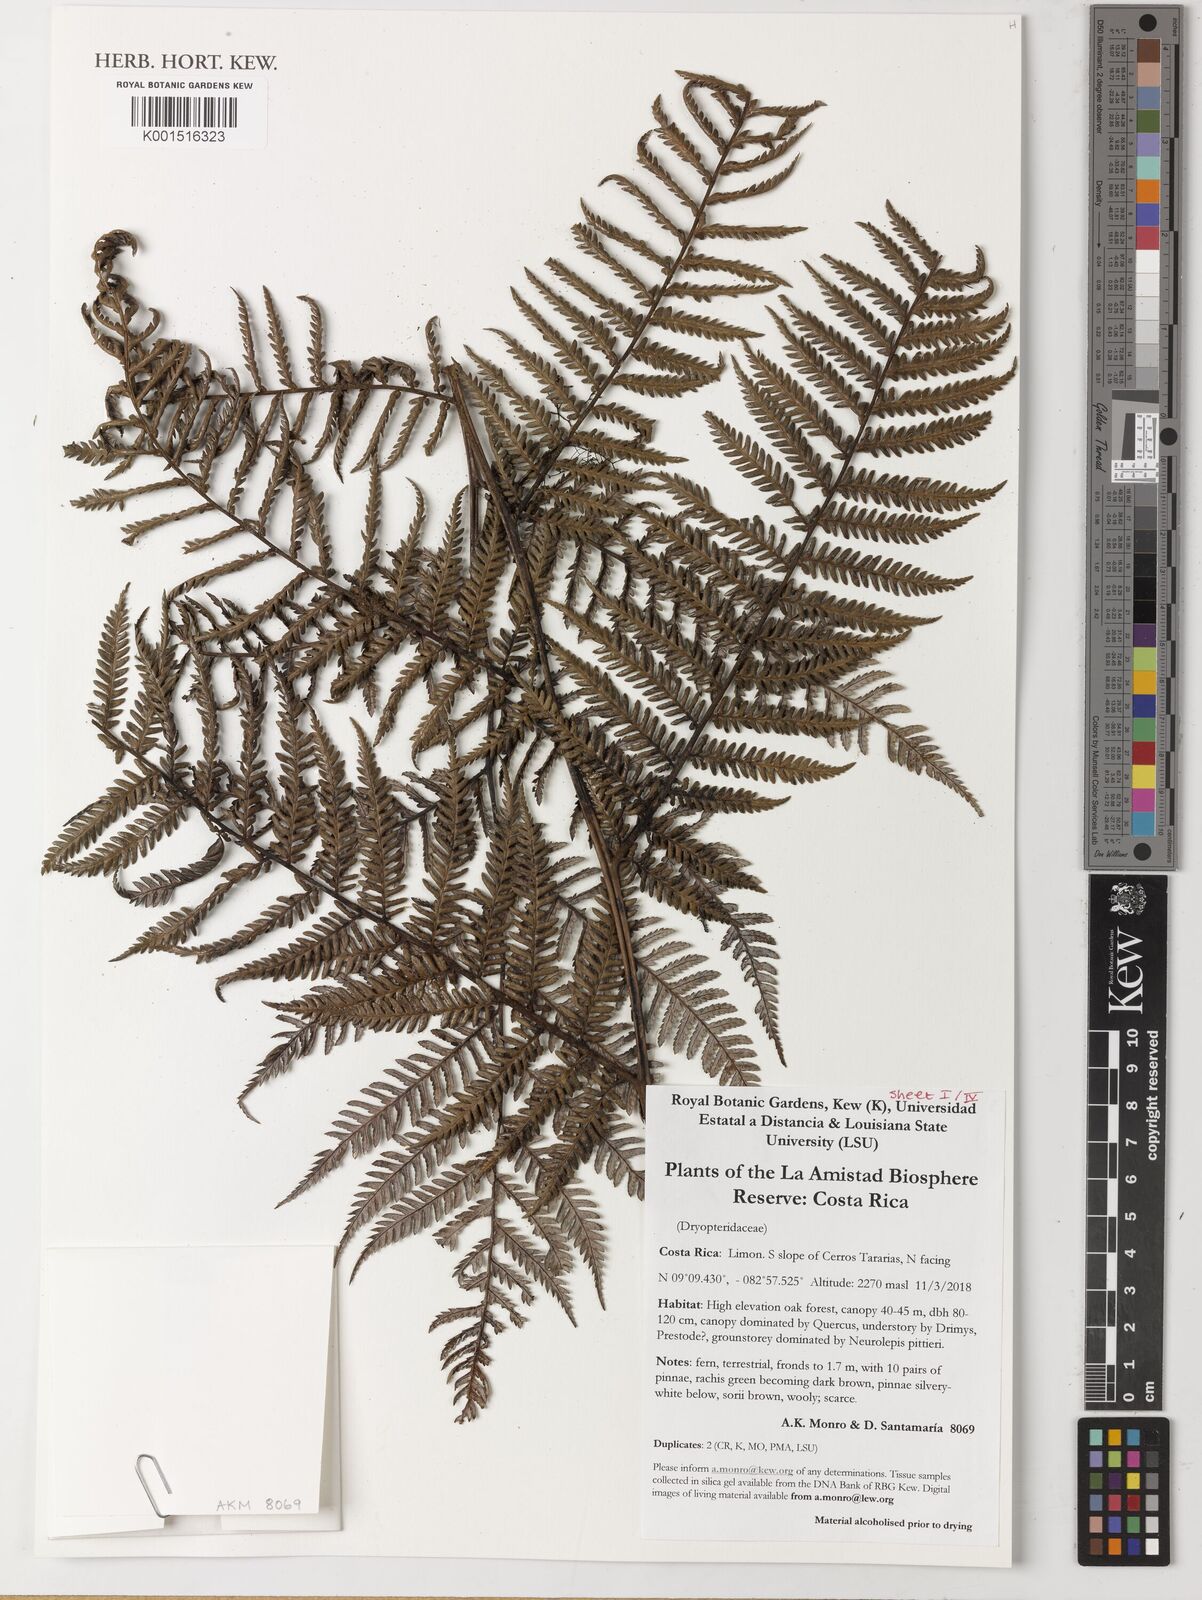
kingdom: Plantae
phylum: Tracheophyta
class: Polypodiopsida
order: Polypodiales
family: Dryopteridaceae
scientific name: Dryopteridaceae
